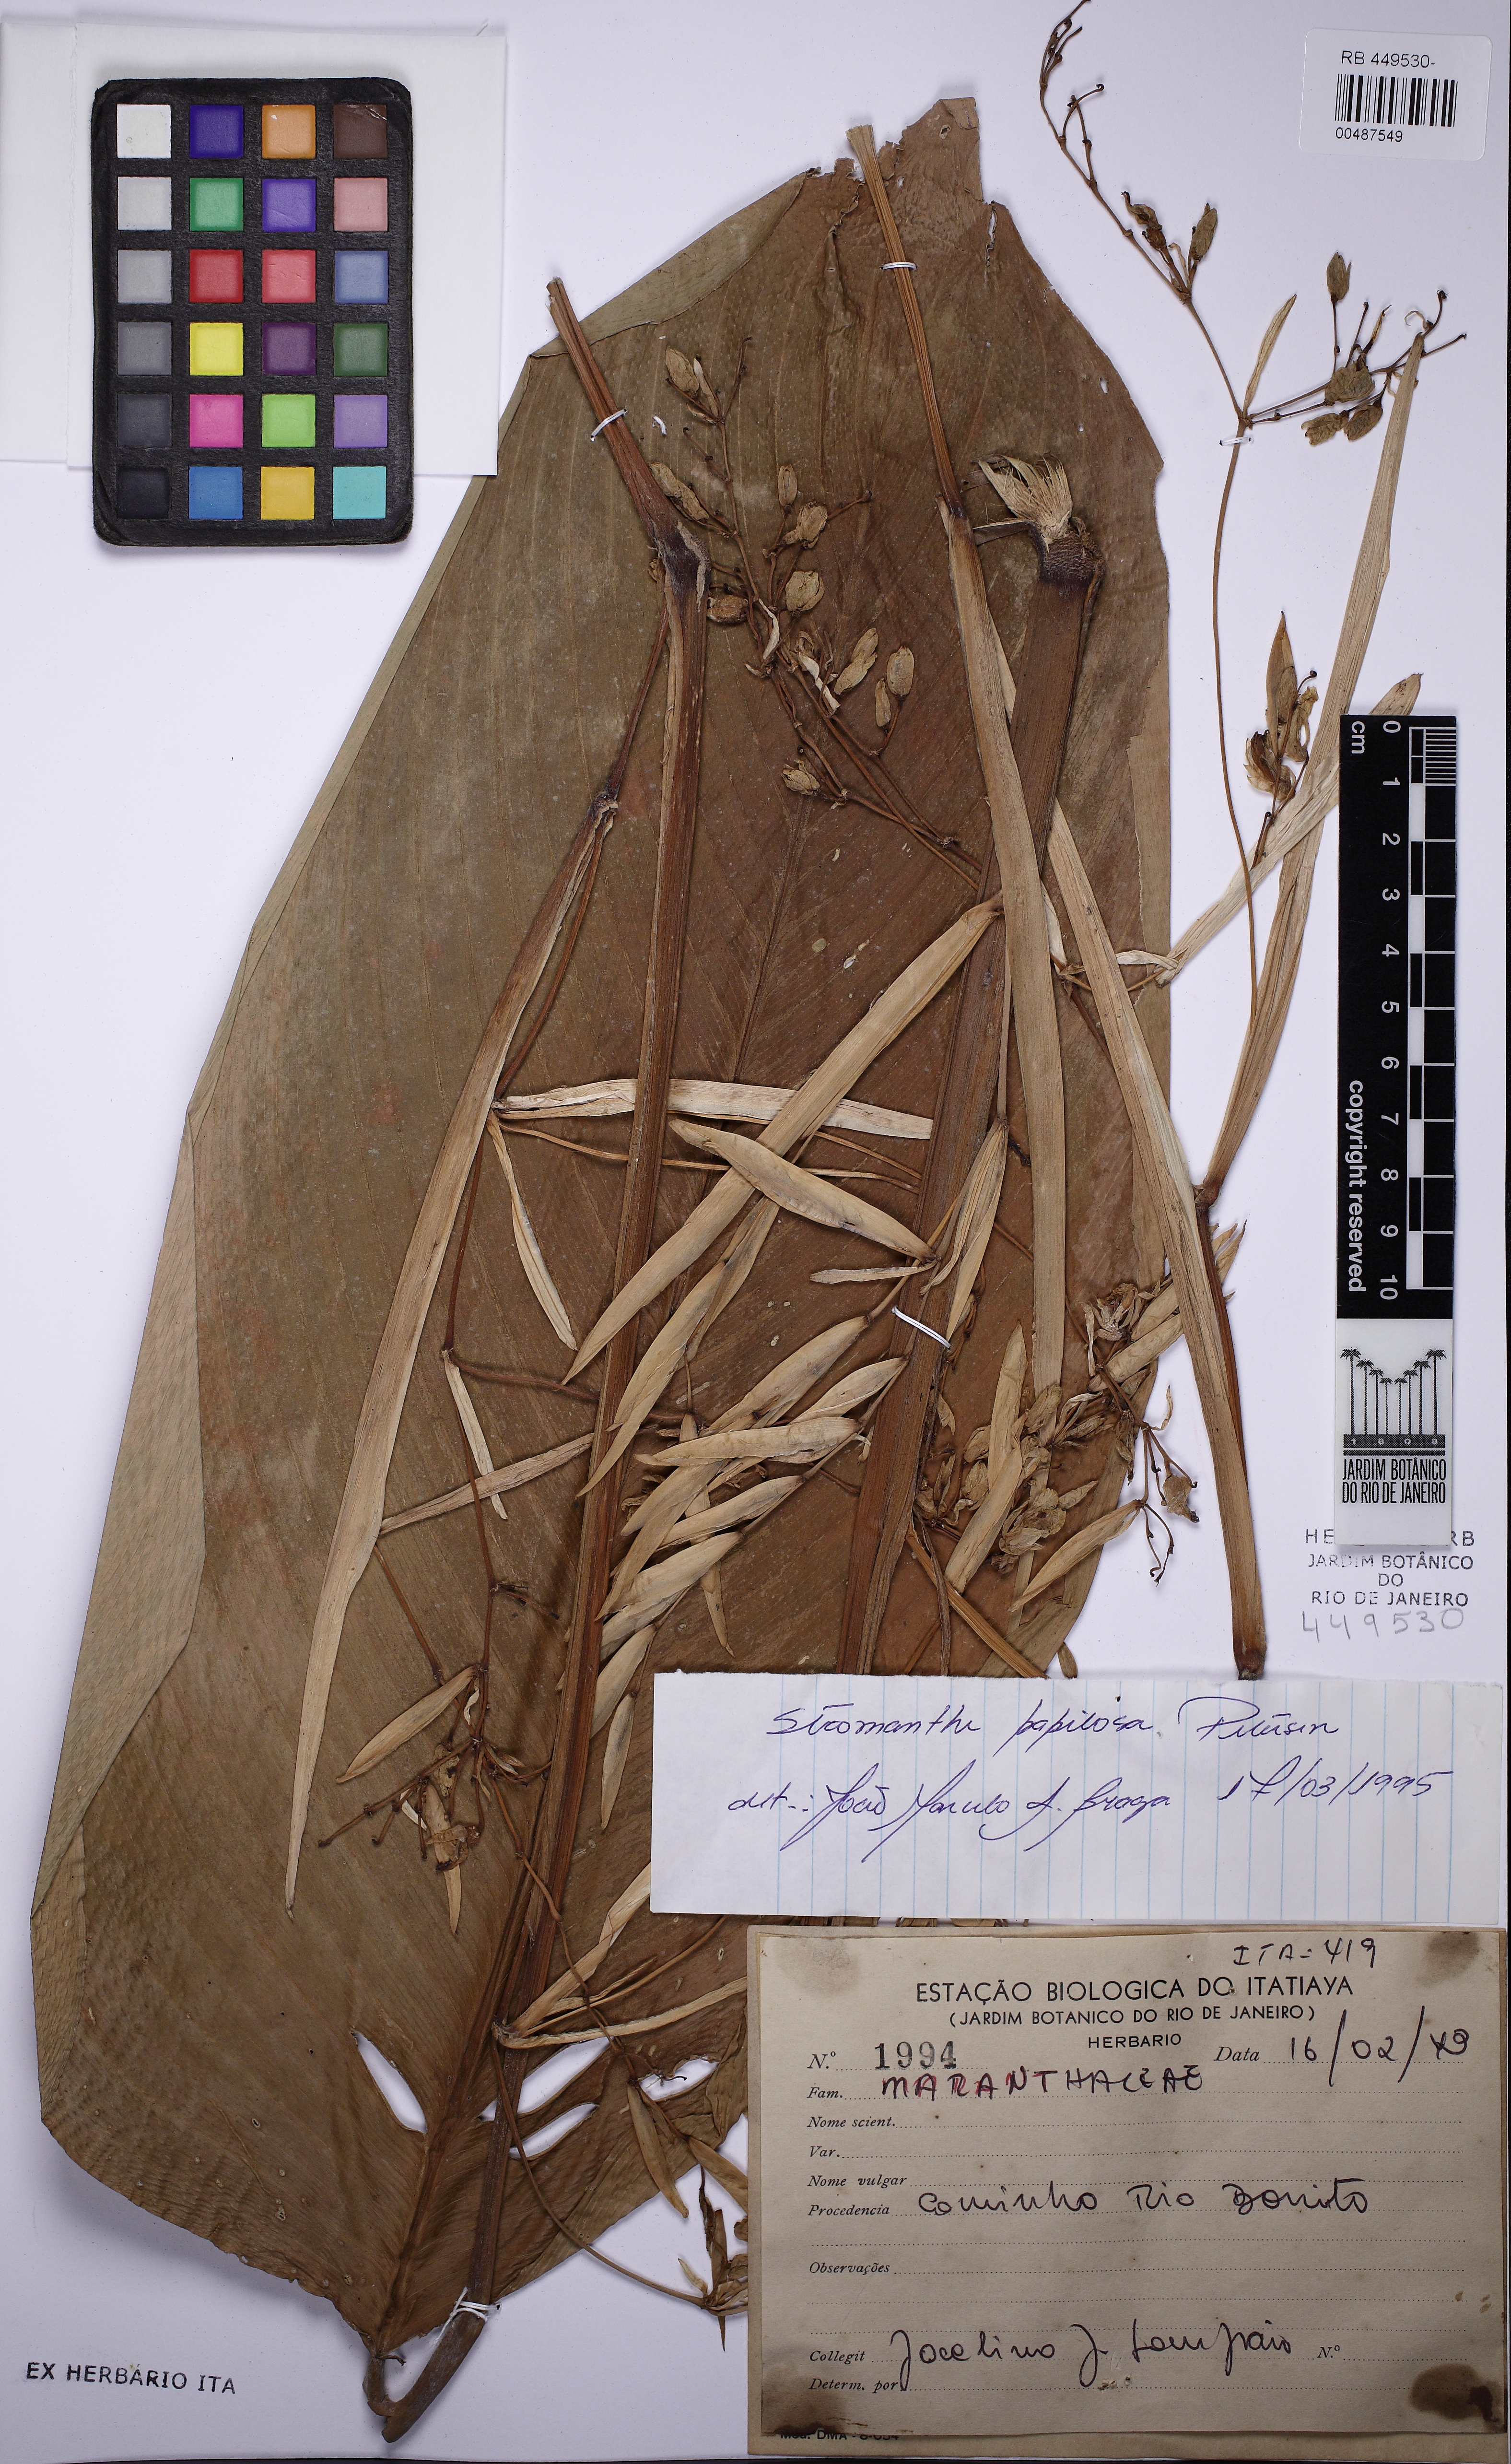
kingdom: Plantae
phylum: Tracheophyta
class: Liliopsida
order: Zingiberales
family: Marantaceae
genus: Stromanthe
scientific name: Stromanthe papillosa
